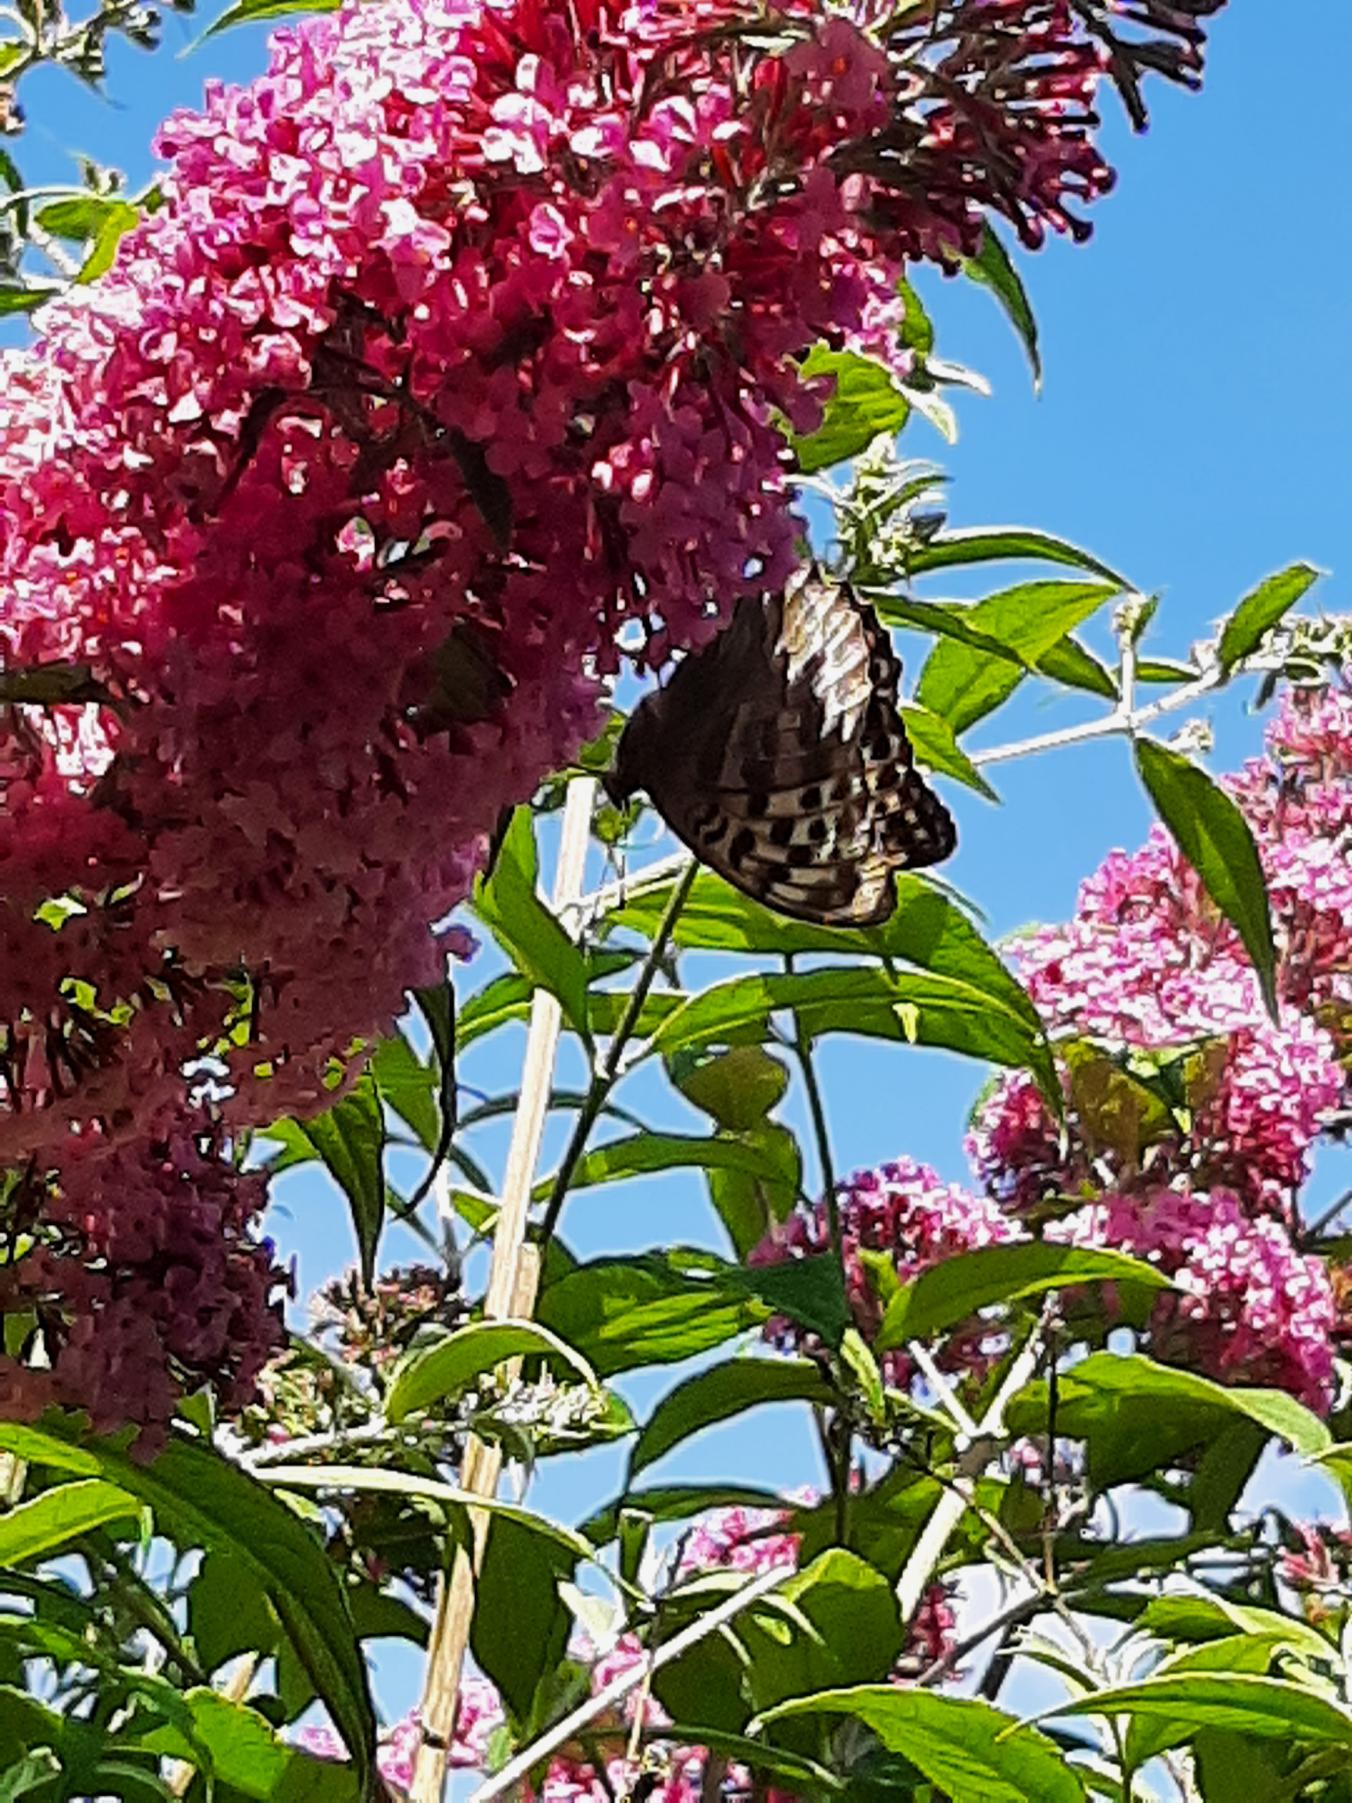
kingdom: Animalia
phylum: Arthropoda
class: Insecta
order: Lepidoptera
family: Nymphalidae
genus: Argynnis
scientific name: Argynnis paphia
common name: Kejserkåbe
